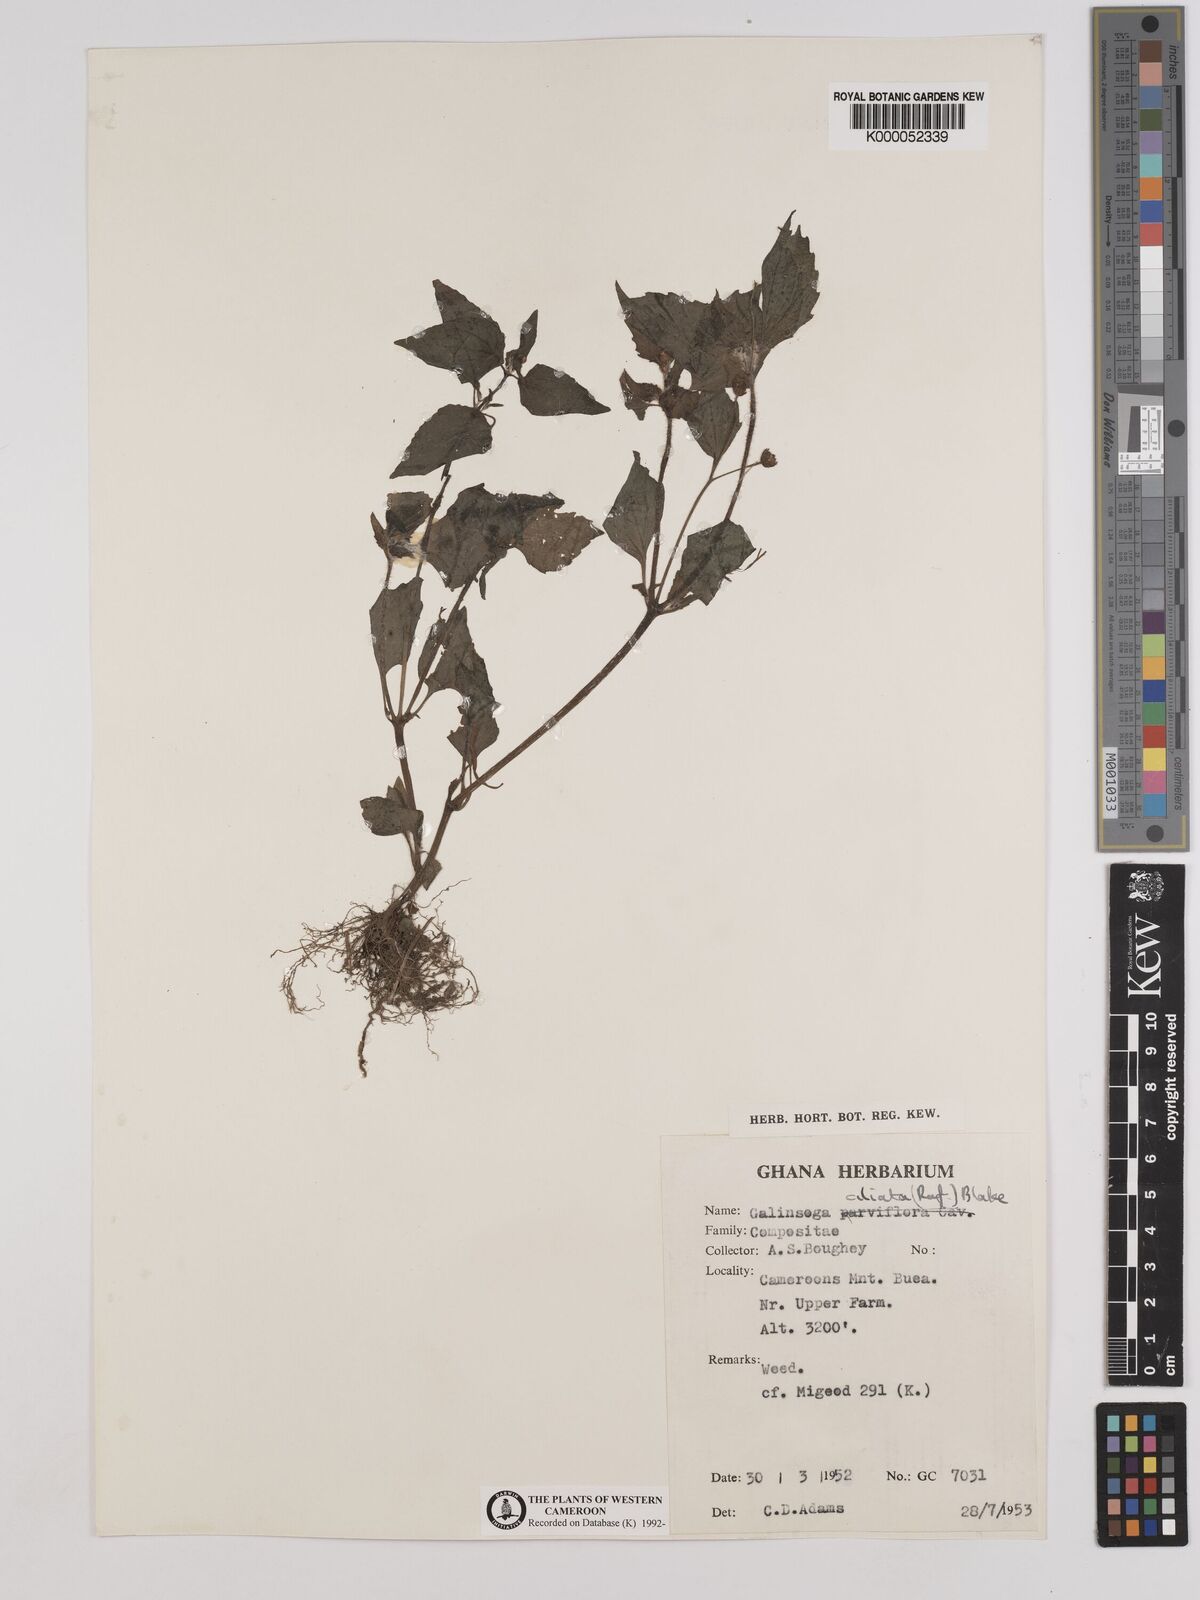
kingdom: Plantae
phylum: Tracheophyta
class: Magnoliopsida
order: Asterales
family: Asteraceae
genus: Galinsoga
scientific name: Galinsoga quadriradiata
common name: Shaggy soldier
